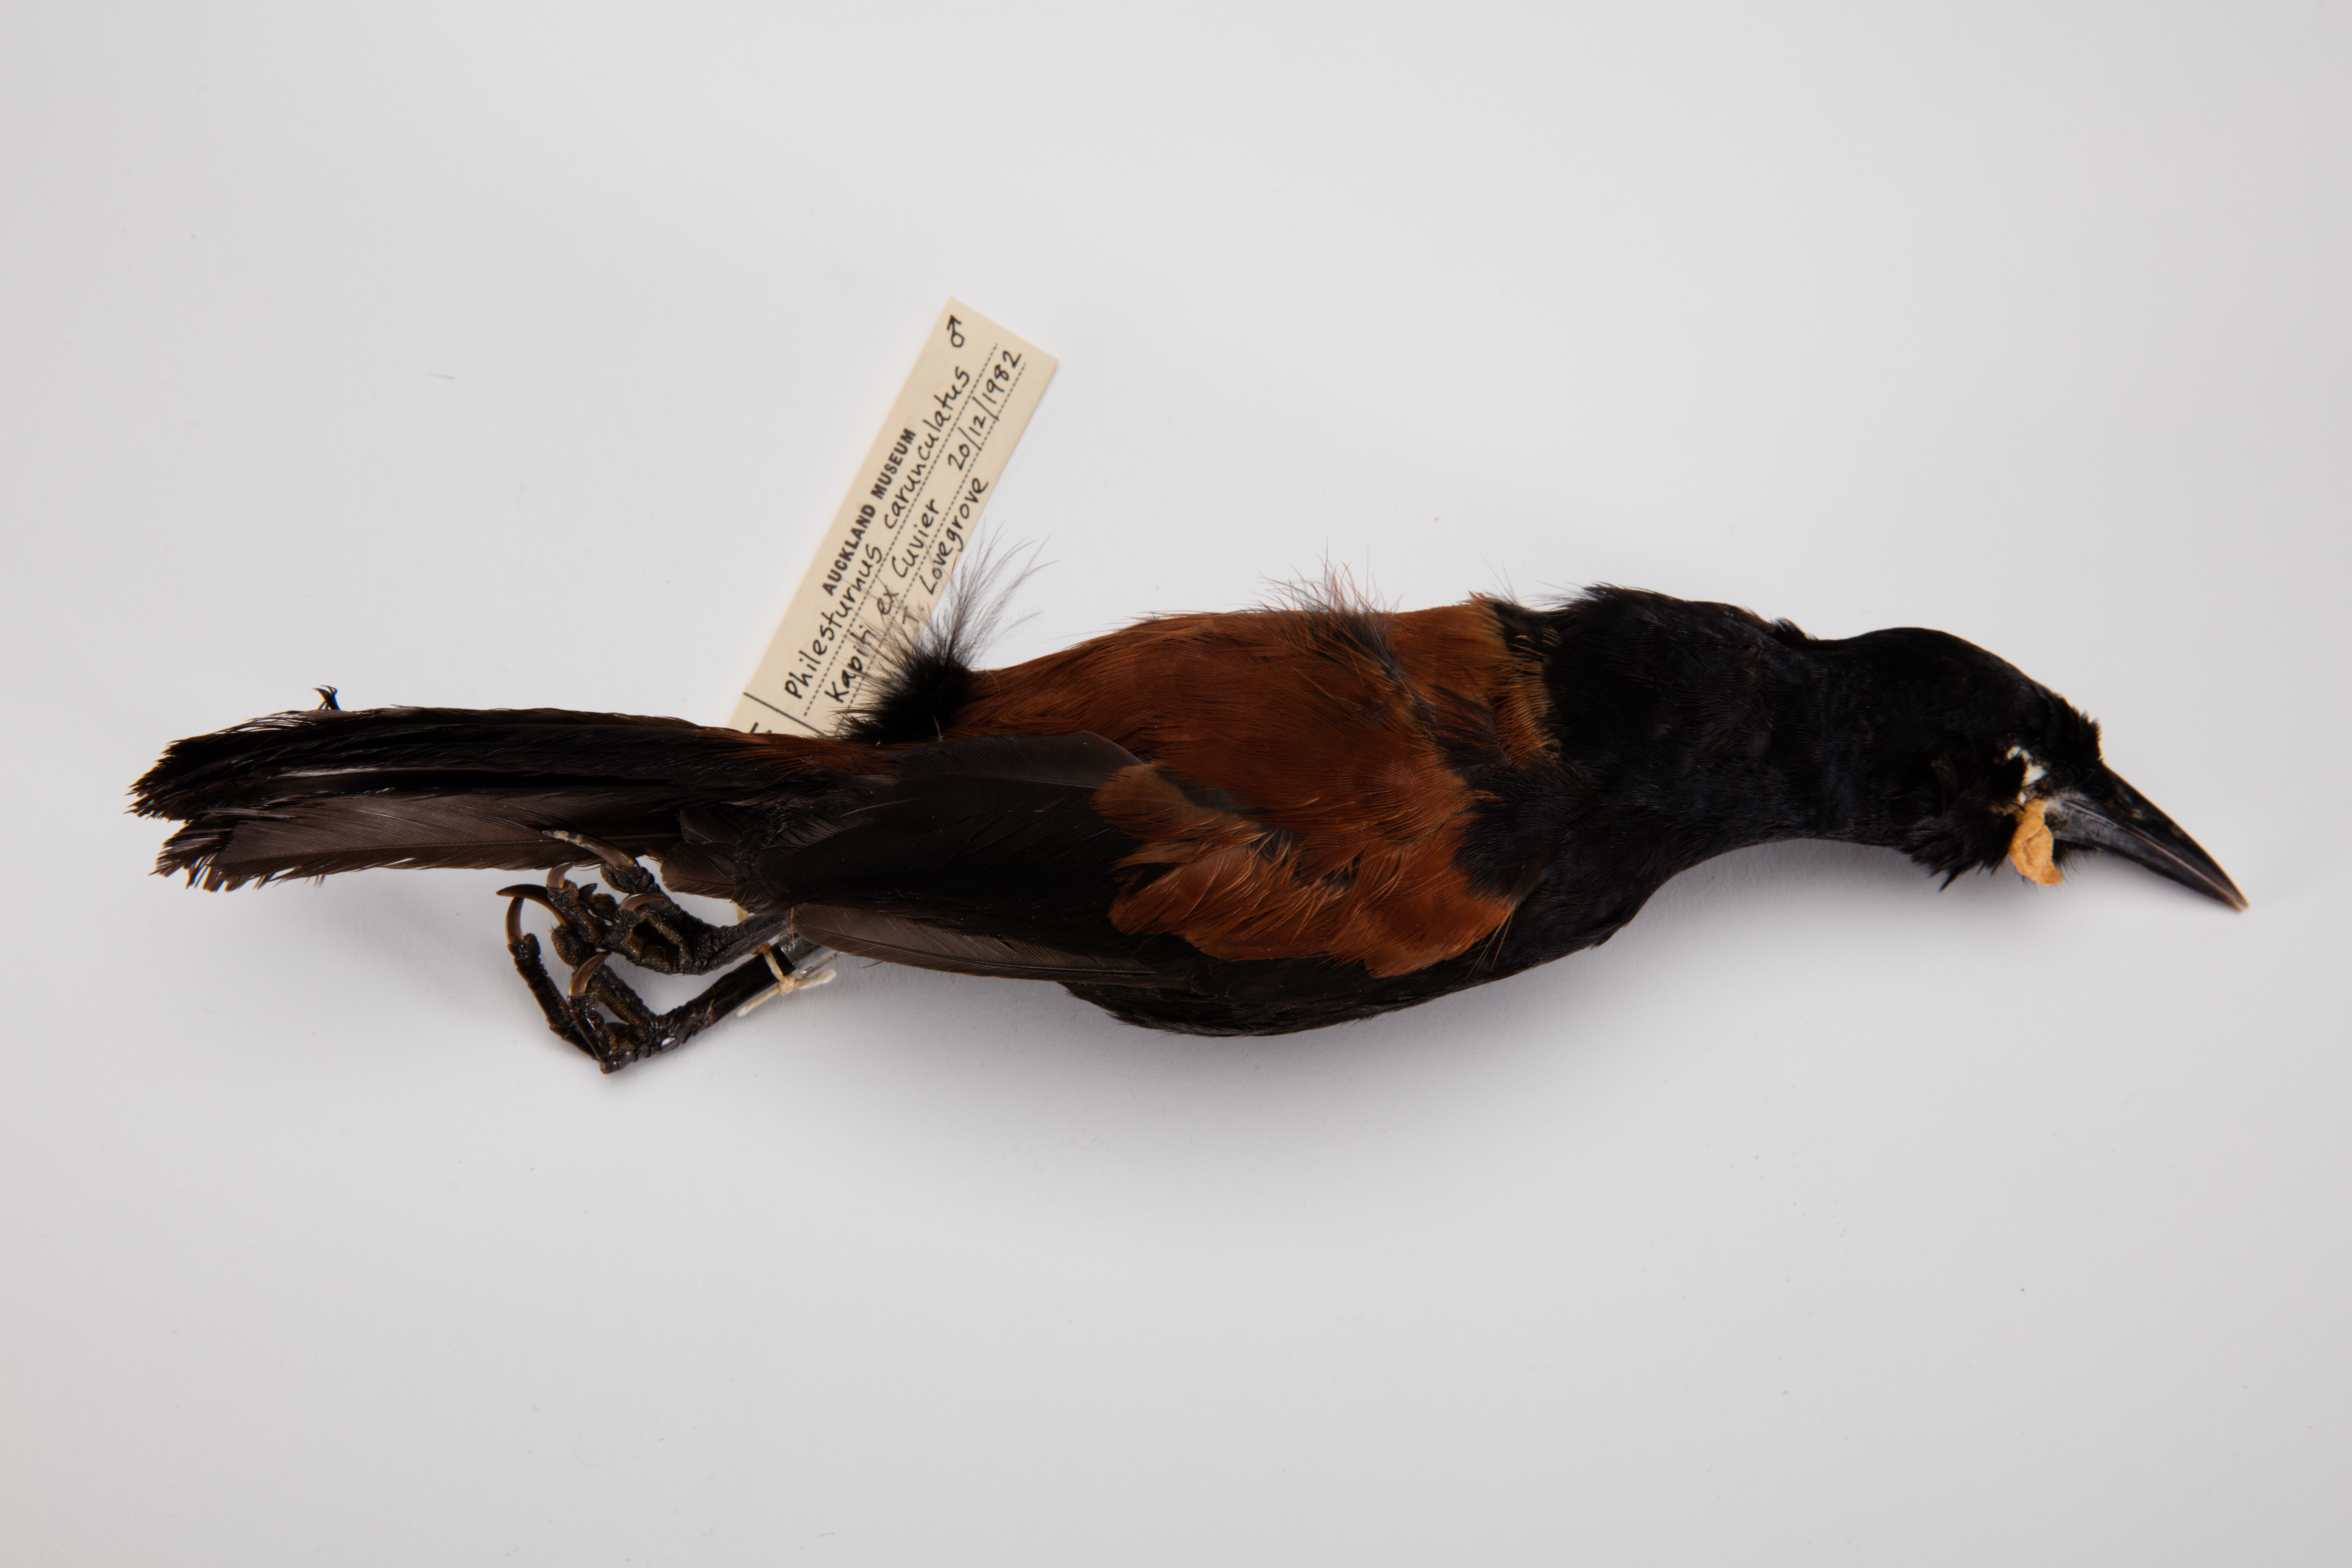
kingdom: Animalia
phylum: Chordata
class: Aves
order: Passeriformes
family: Callaeatidae
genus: Philesturnus
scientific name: Philesturnus carunculatus
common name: South island saddleback
